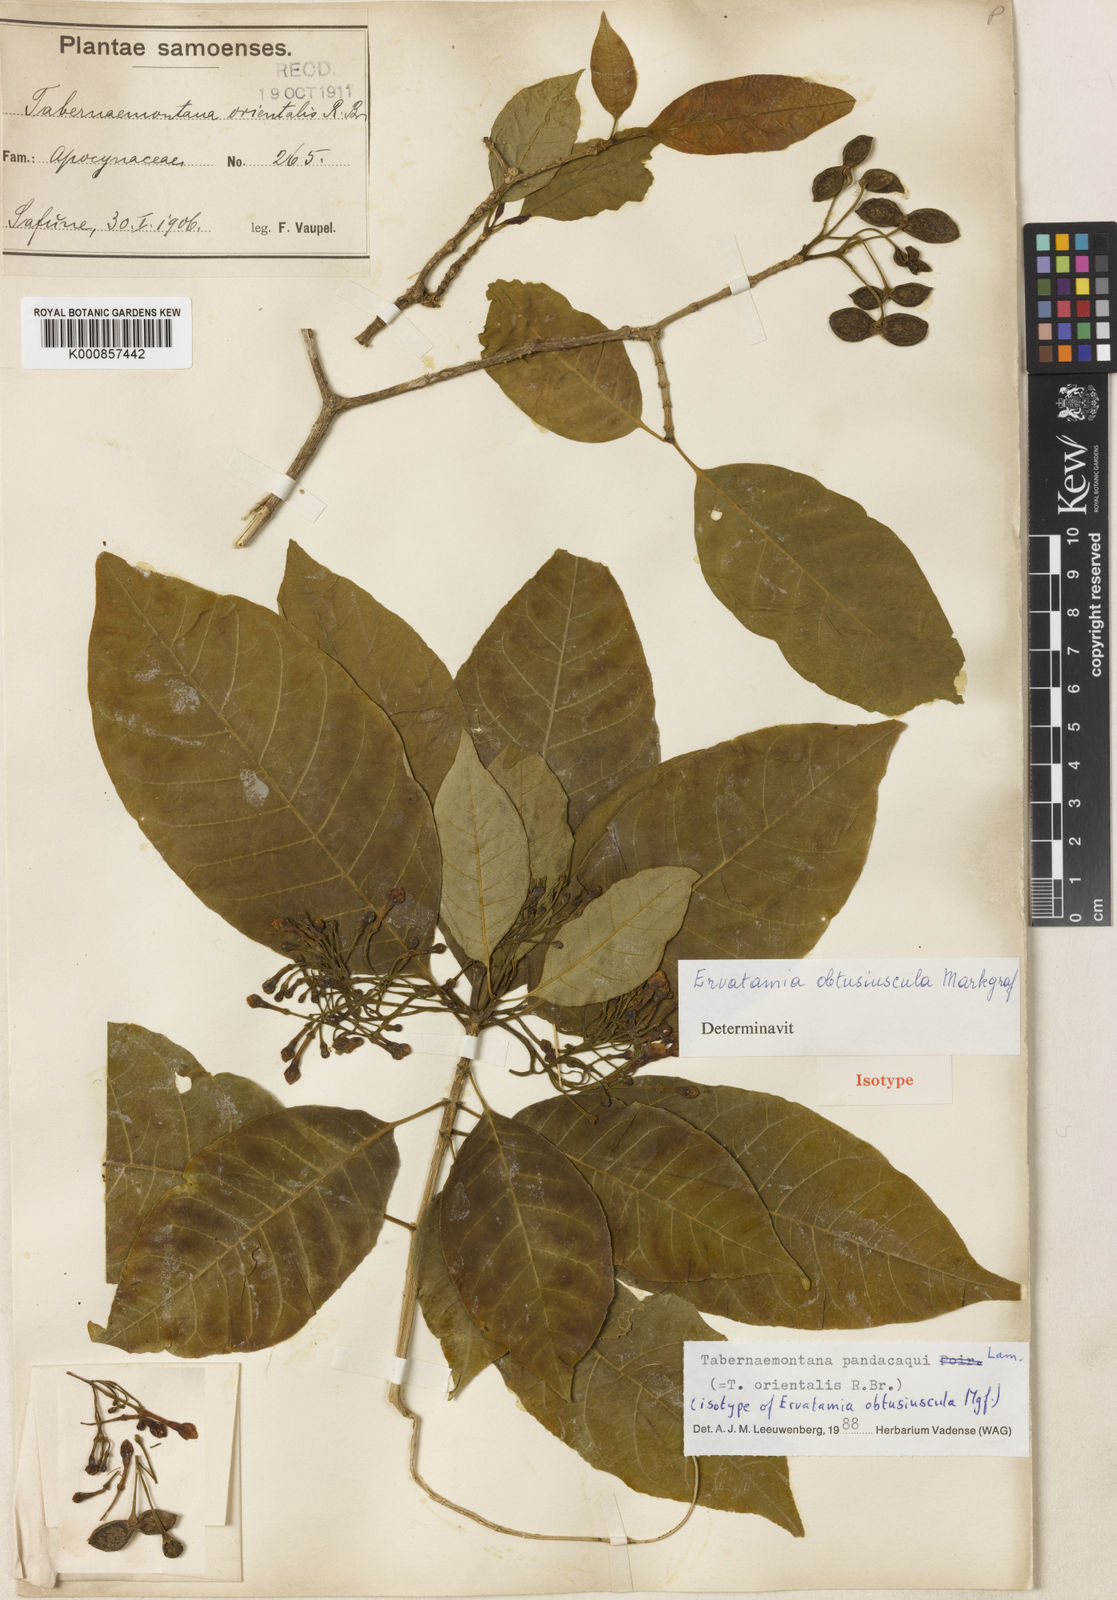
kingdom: Plantae
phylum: Tracheophyta
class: Magnoliopsida
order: Gentianales
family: Apocynaceae
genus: Tabernaemontana
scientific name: Tabernaemontana
